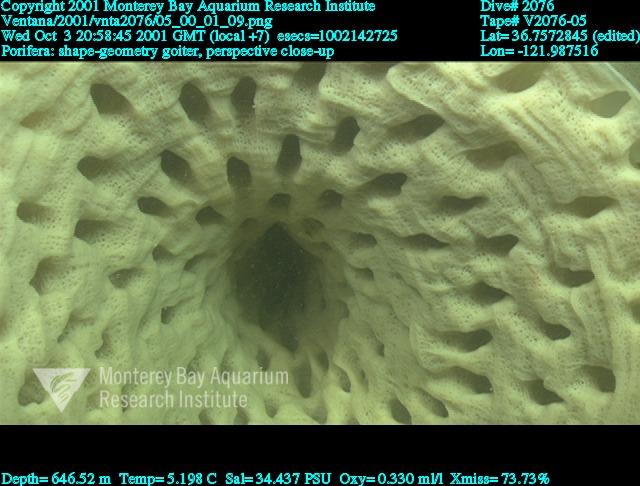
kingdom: Animalia
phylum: Porifera
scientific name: Porifera
